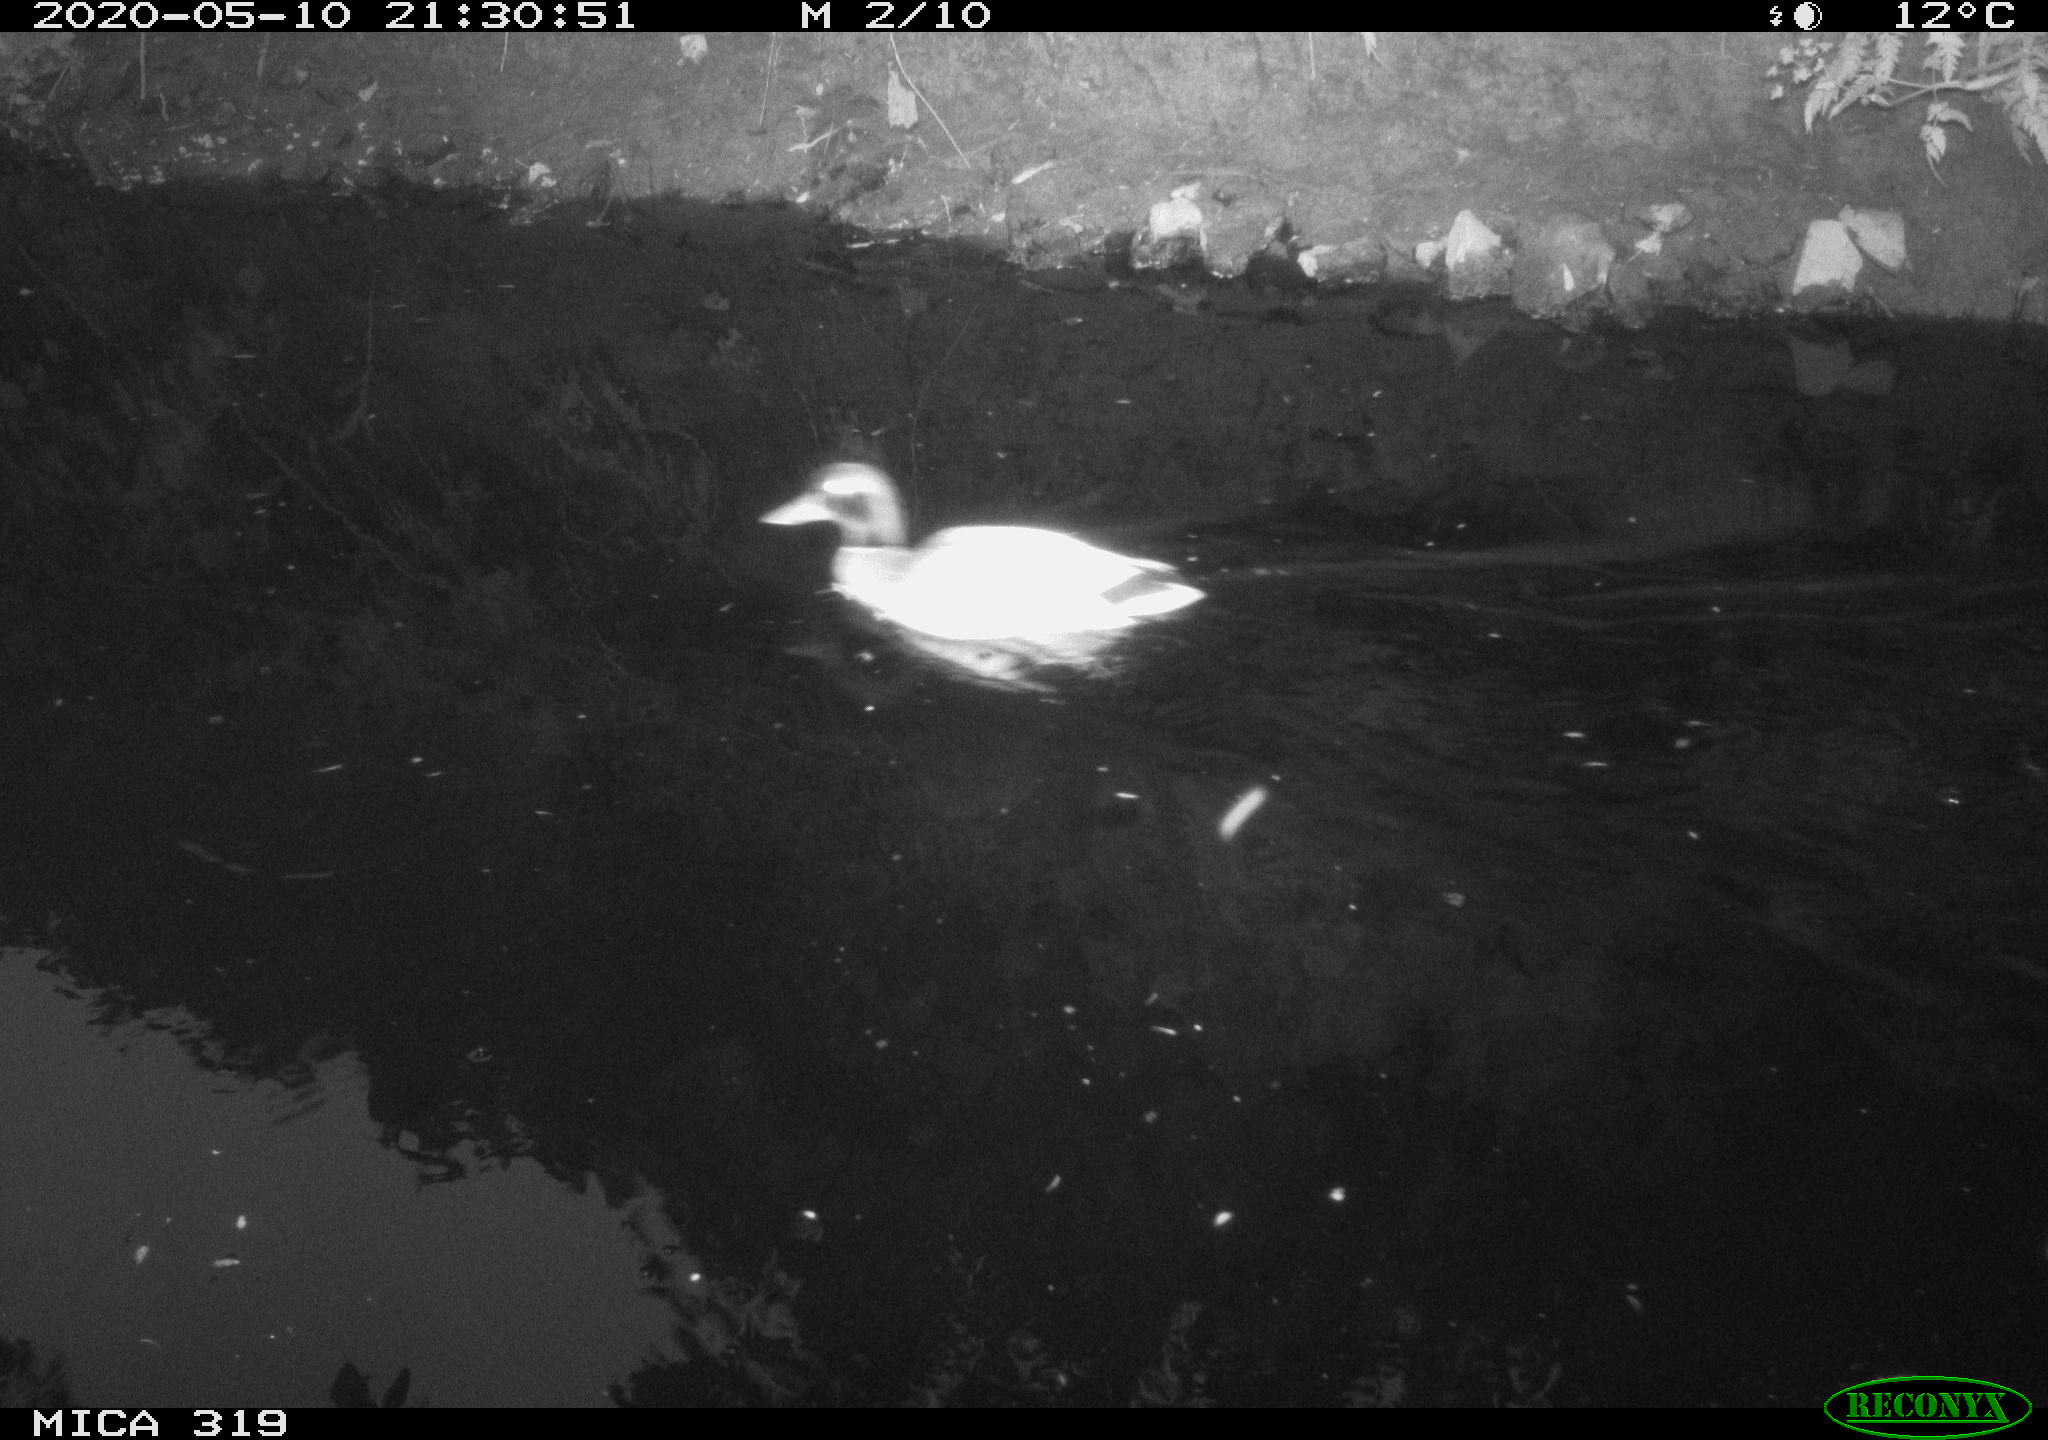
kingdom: Animalia
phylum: Chordata
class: Aves
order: Anseriformes
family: Anatidae
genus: Anas
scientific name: Anas platyrhynchos
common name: Mallard
